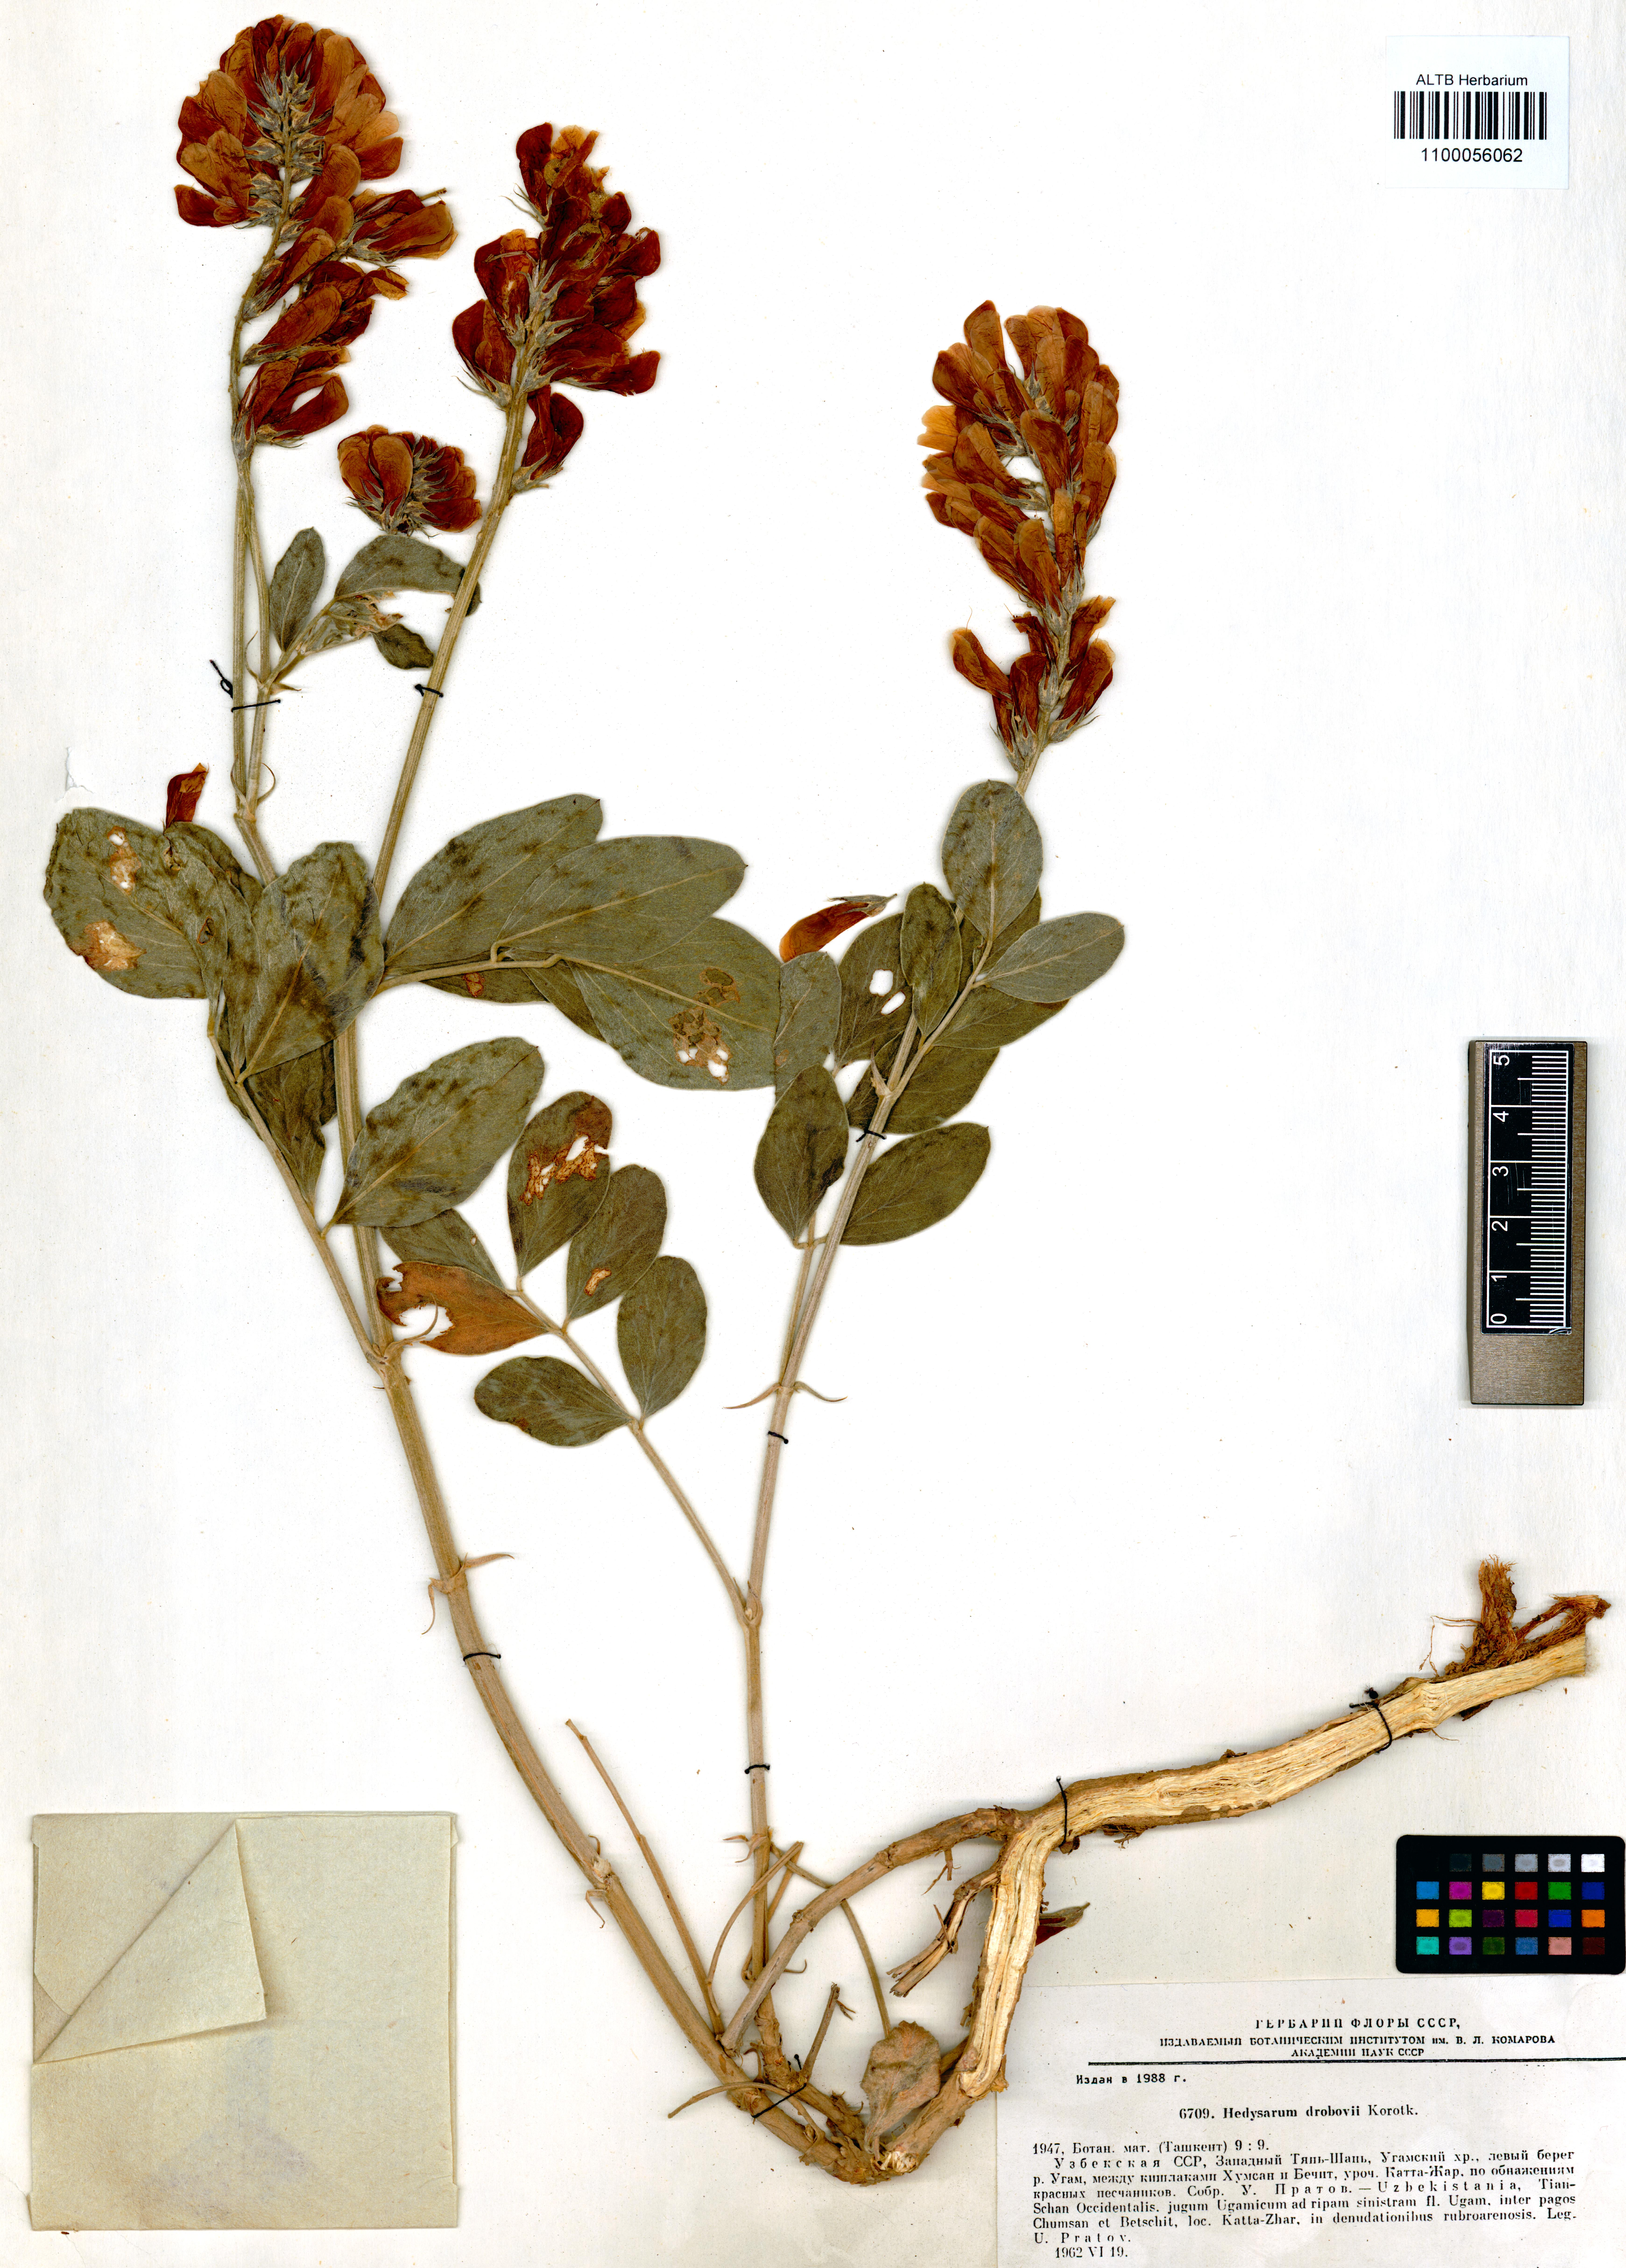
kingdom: Plantae
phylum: Tracheophyta
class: Magnoliopsida
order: Fabales
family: Fabaceae
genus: Hedysarum
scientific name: Hedysarum drobovii
